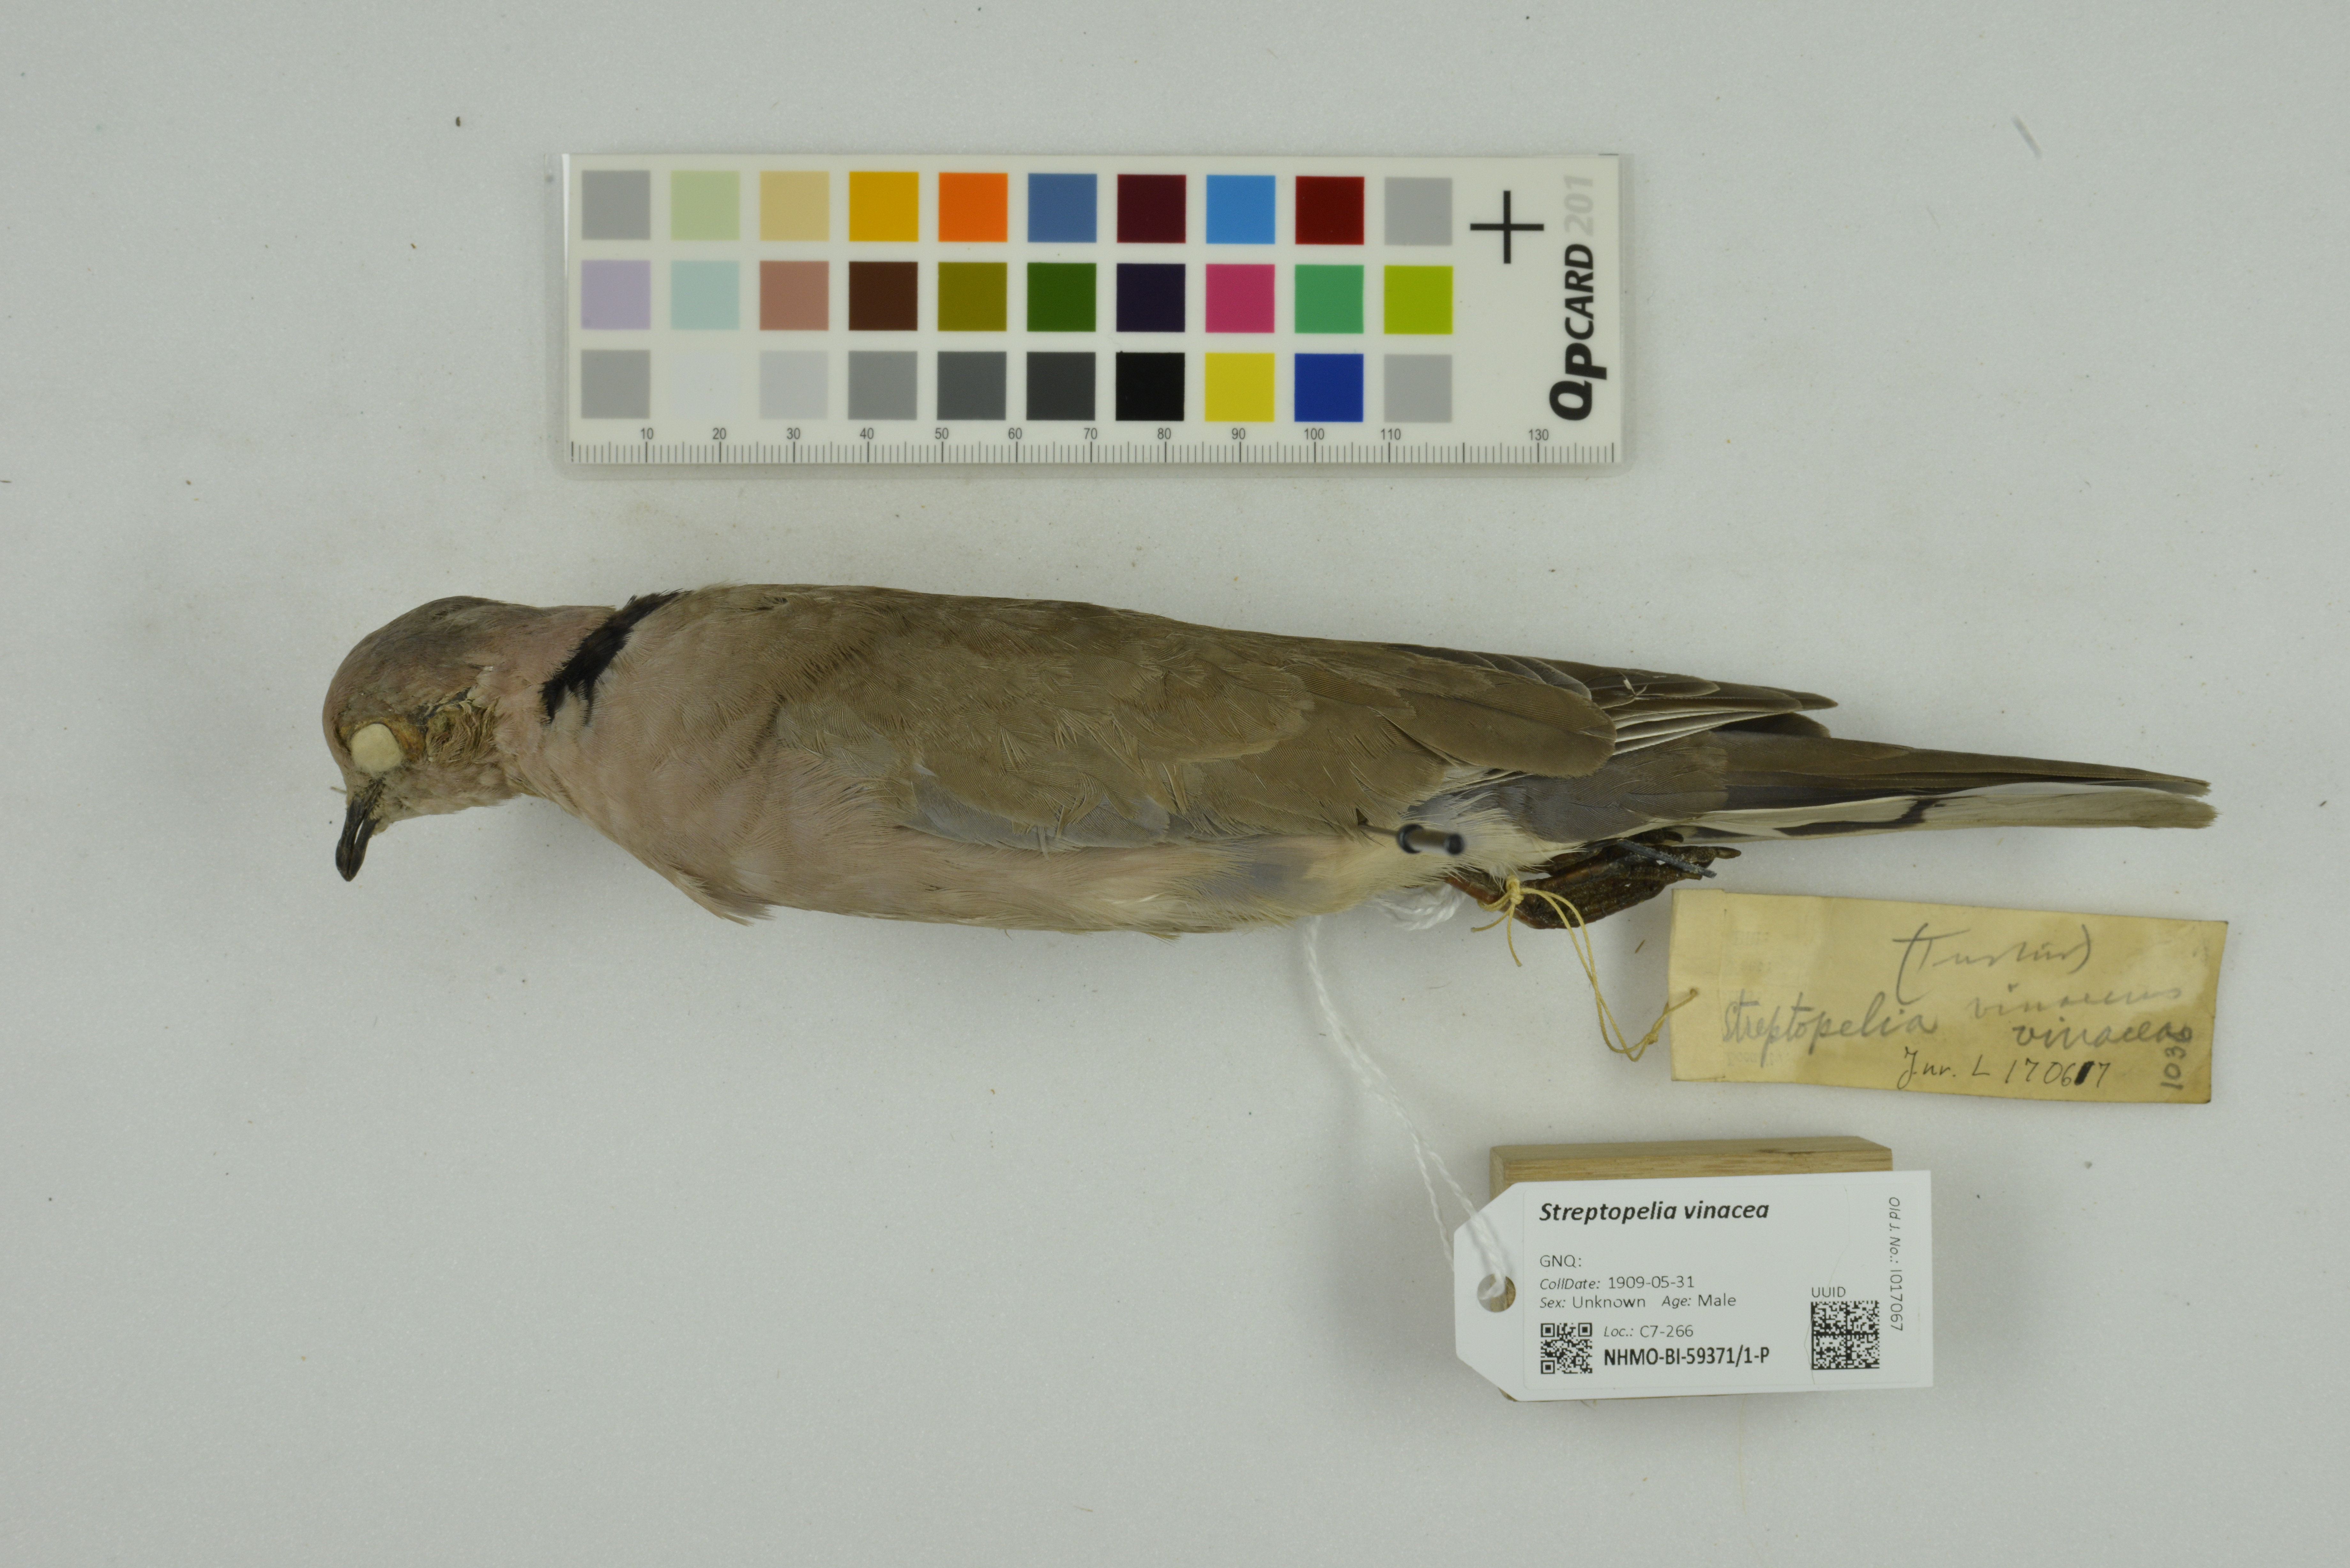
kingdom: Animalia
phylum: Chordata
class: Aves
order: Columbiformes
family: Columbidae
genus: Streptopelia
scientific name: Streptopelia vinacea
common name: Vinaceous dove
